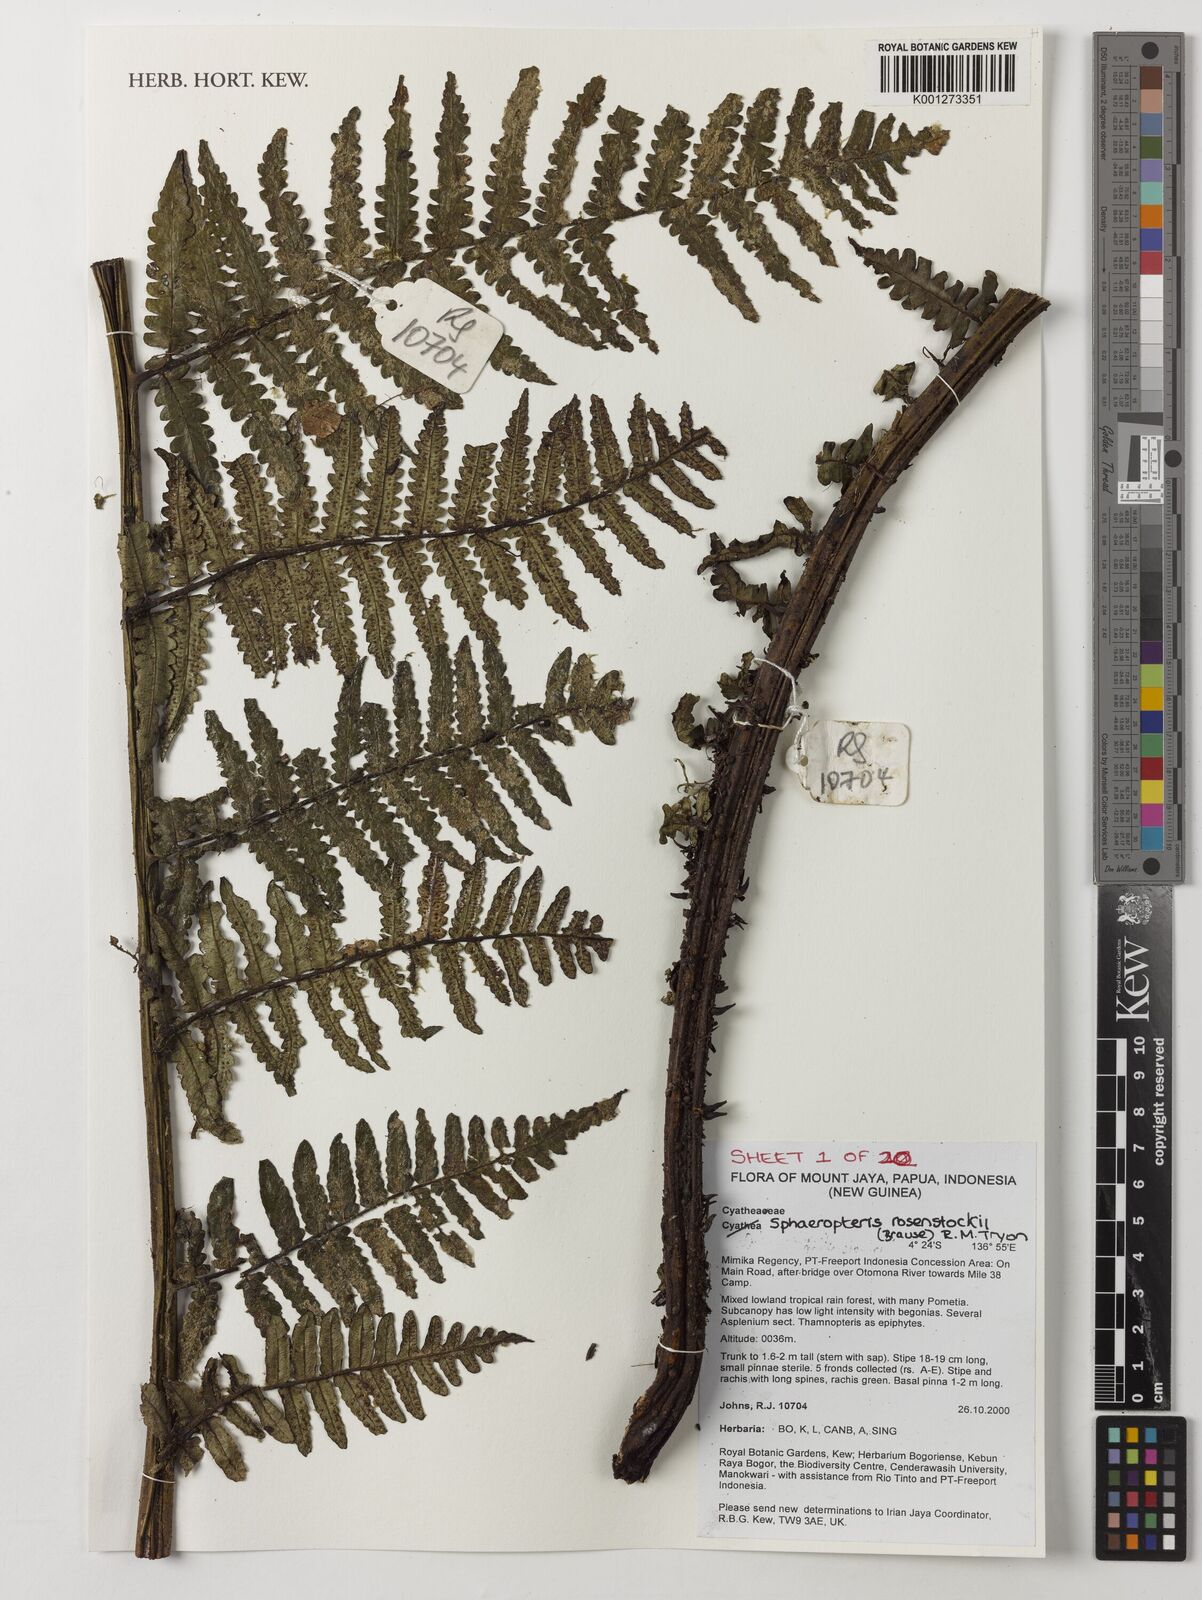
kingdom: Plantae
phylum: Tracheophyta
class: Polypodiopsida
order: Cyatheales
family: Cyatheaceae
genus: Sphaeropteris
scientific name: Sphaeropteris rosenstockii
